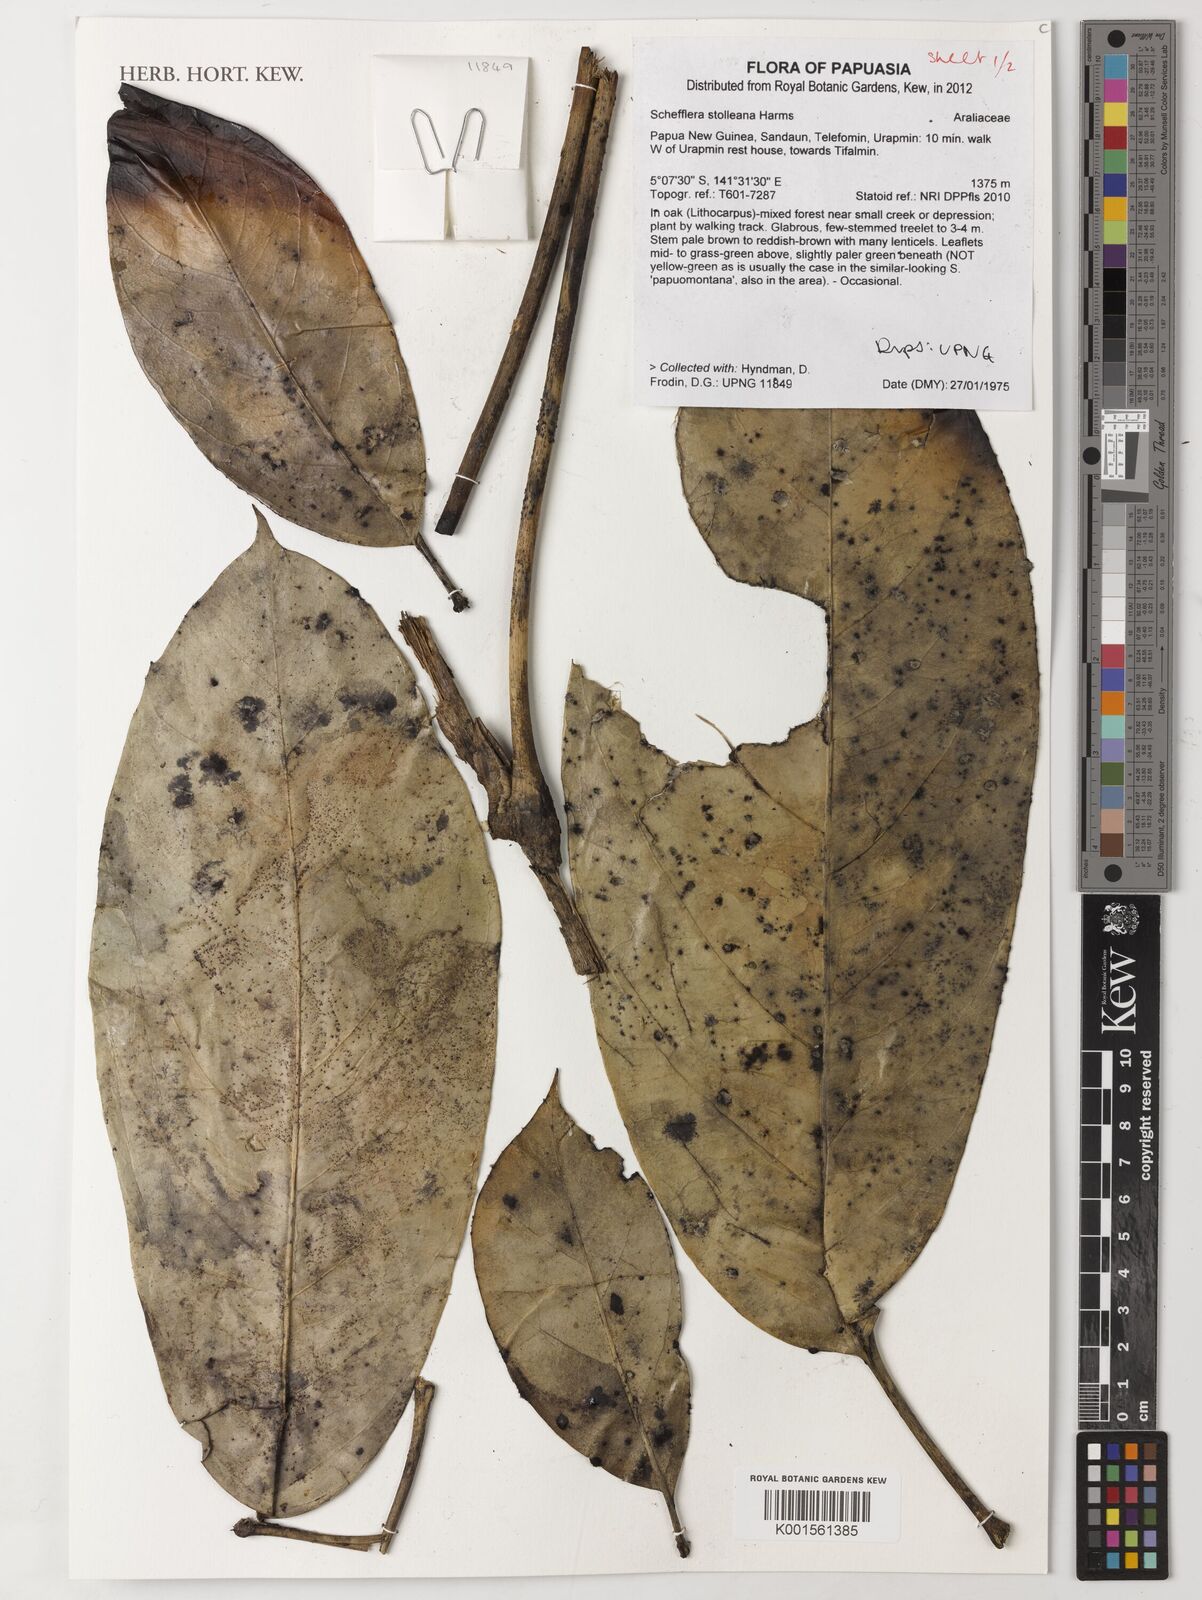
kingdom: Plantae
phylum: Tracheophyta
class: Magnoliopsida
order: Apiales
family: Araliaceae
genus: Heptapleurum
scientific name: Heptapleurum stolleanum
